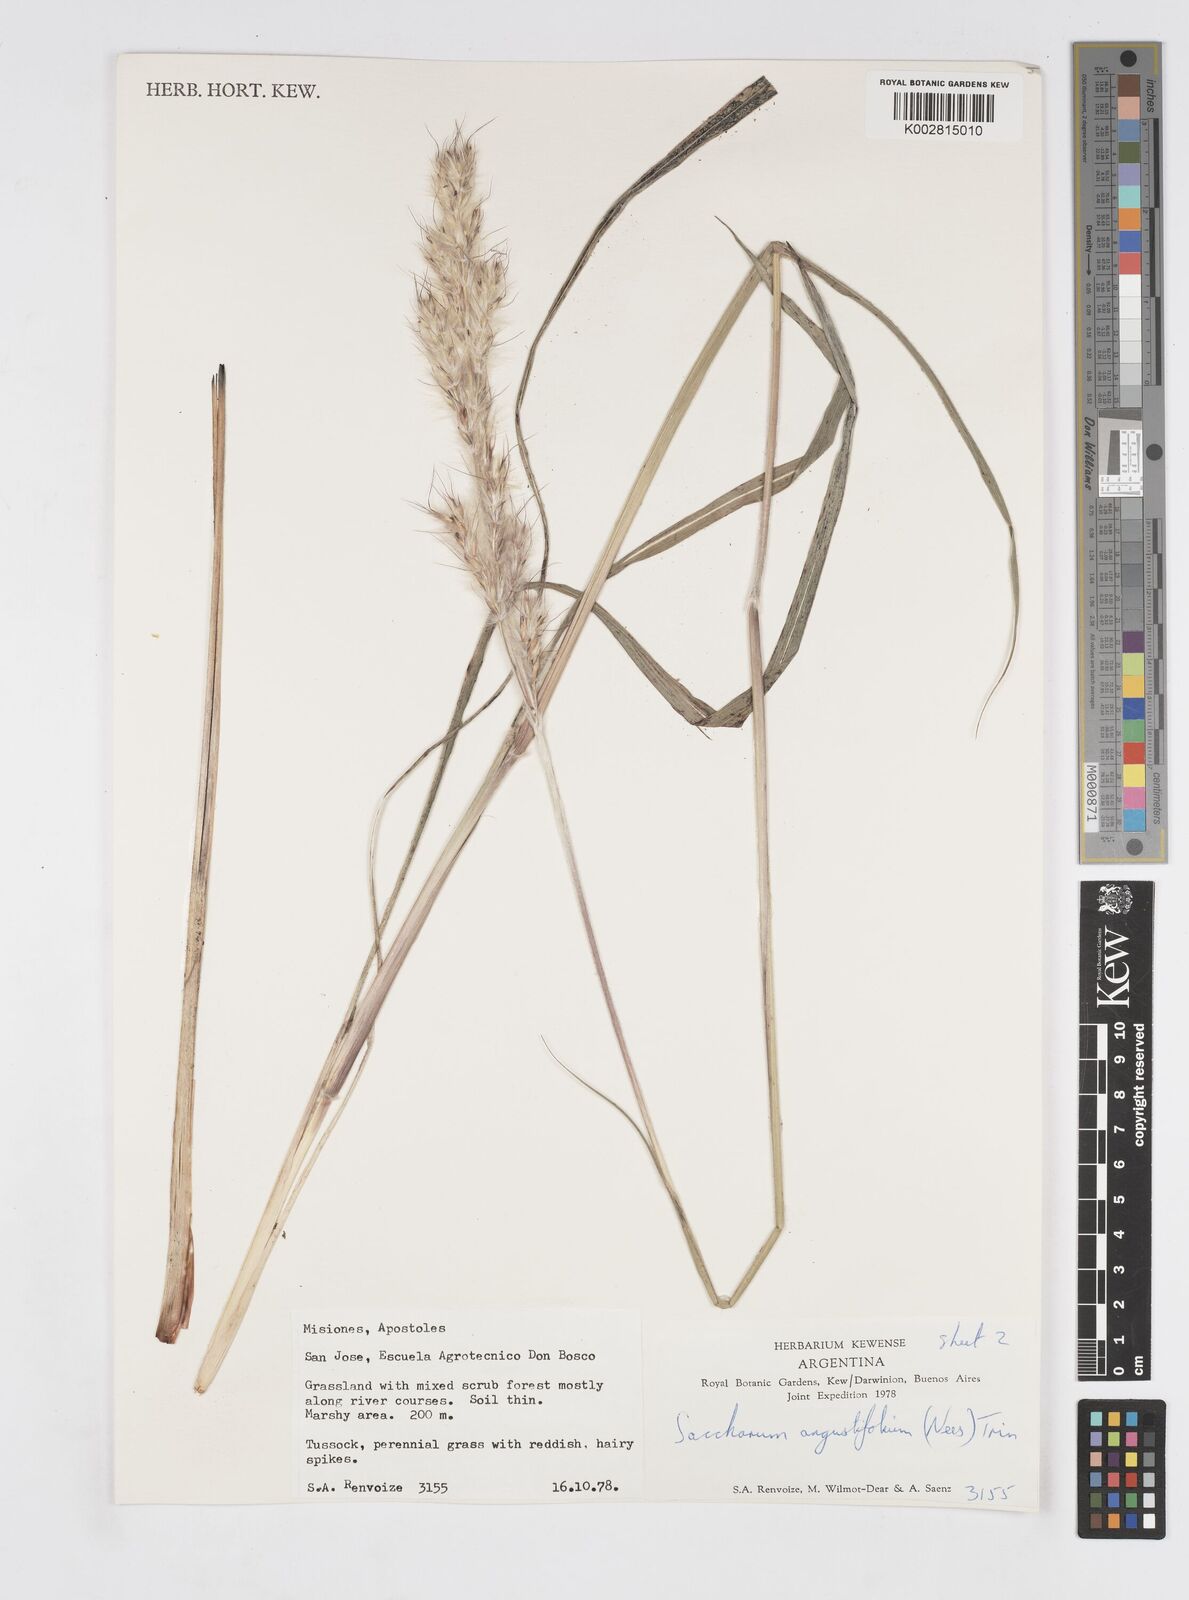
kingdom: Plantae
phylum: Tracheophyta
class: Liliopsida
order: Poales
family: Poaceae
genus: Saccharum
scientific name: Saccharum angustifolium
